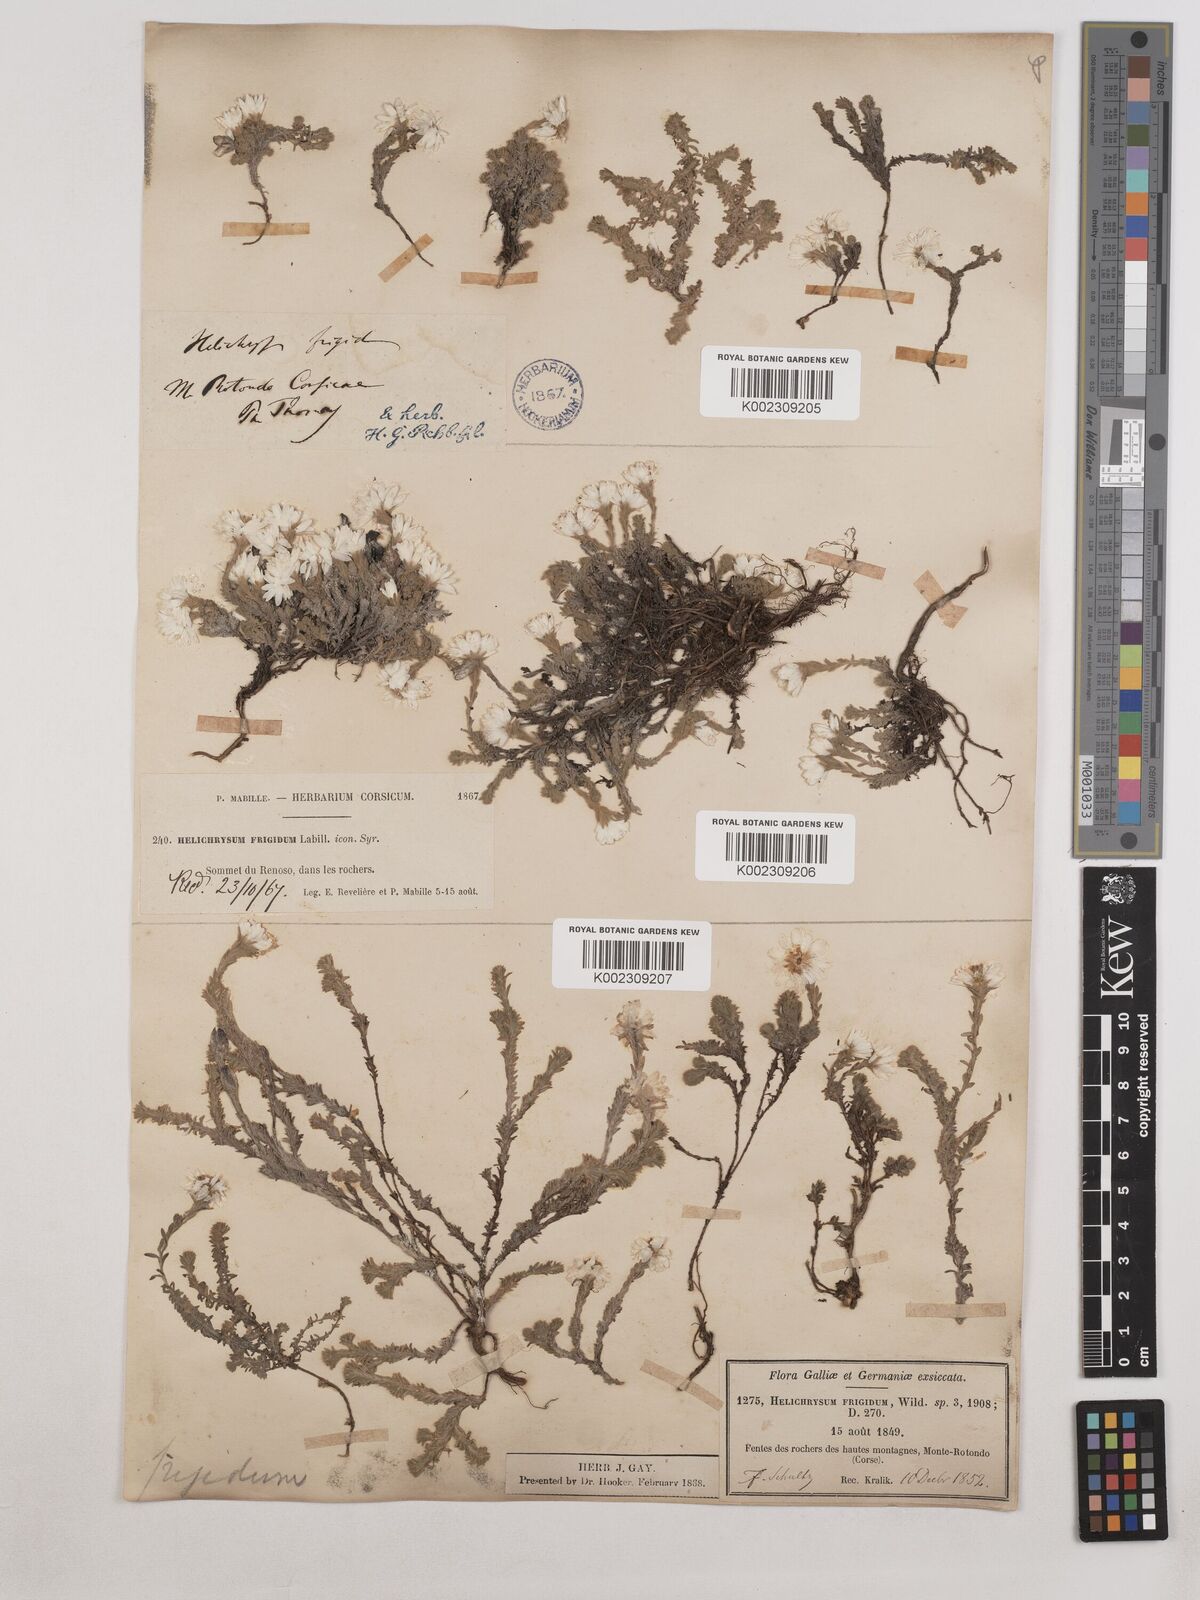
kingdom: Plantae
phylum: Tracheophyta
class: Magnoliopsida
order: Asterales
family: Asteraceae
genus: Castroviejoa
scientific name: Castroviejoa frigida
